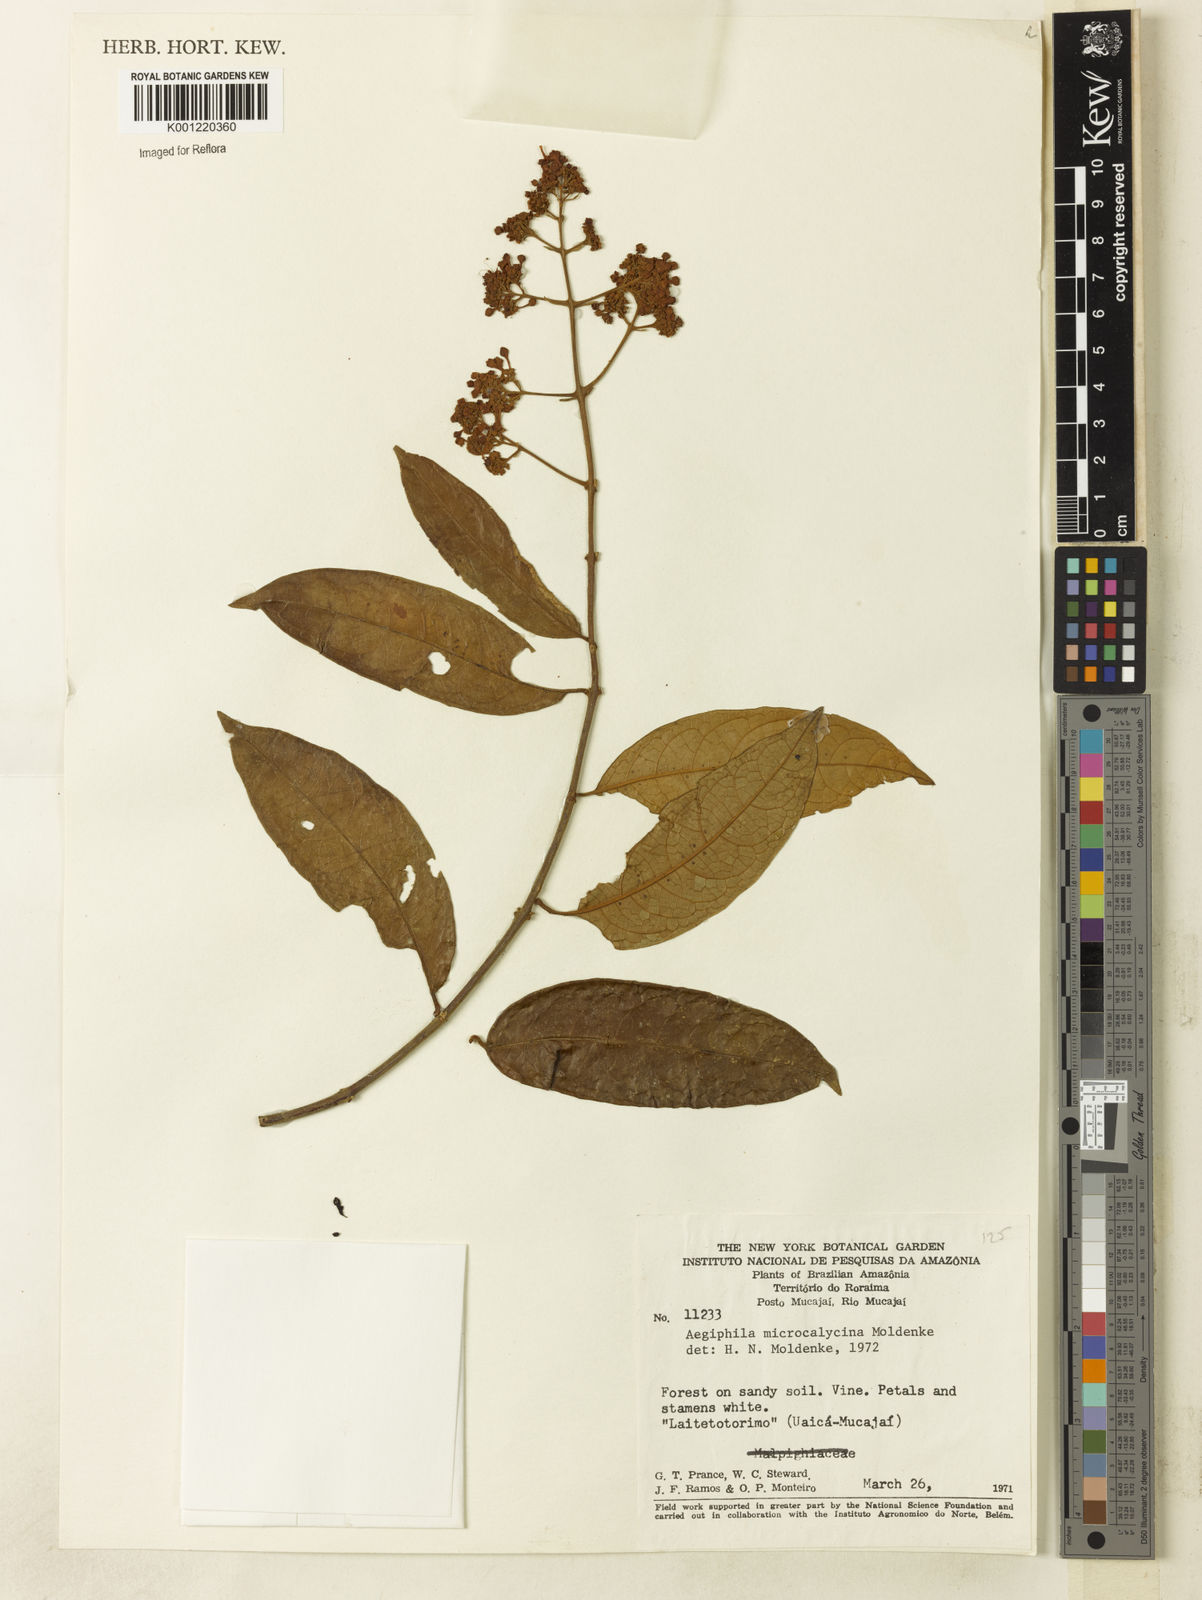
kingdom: Plantae
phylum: Tracheophyta
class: Magnoliopsida
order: Lamiales
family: Lamiaceae
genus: Aegiphila
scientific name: Aegiphila microcalycina
